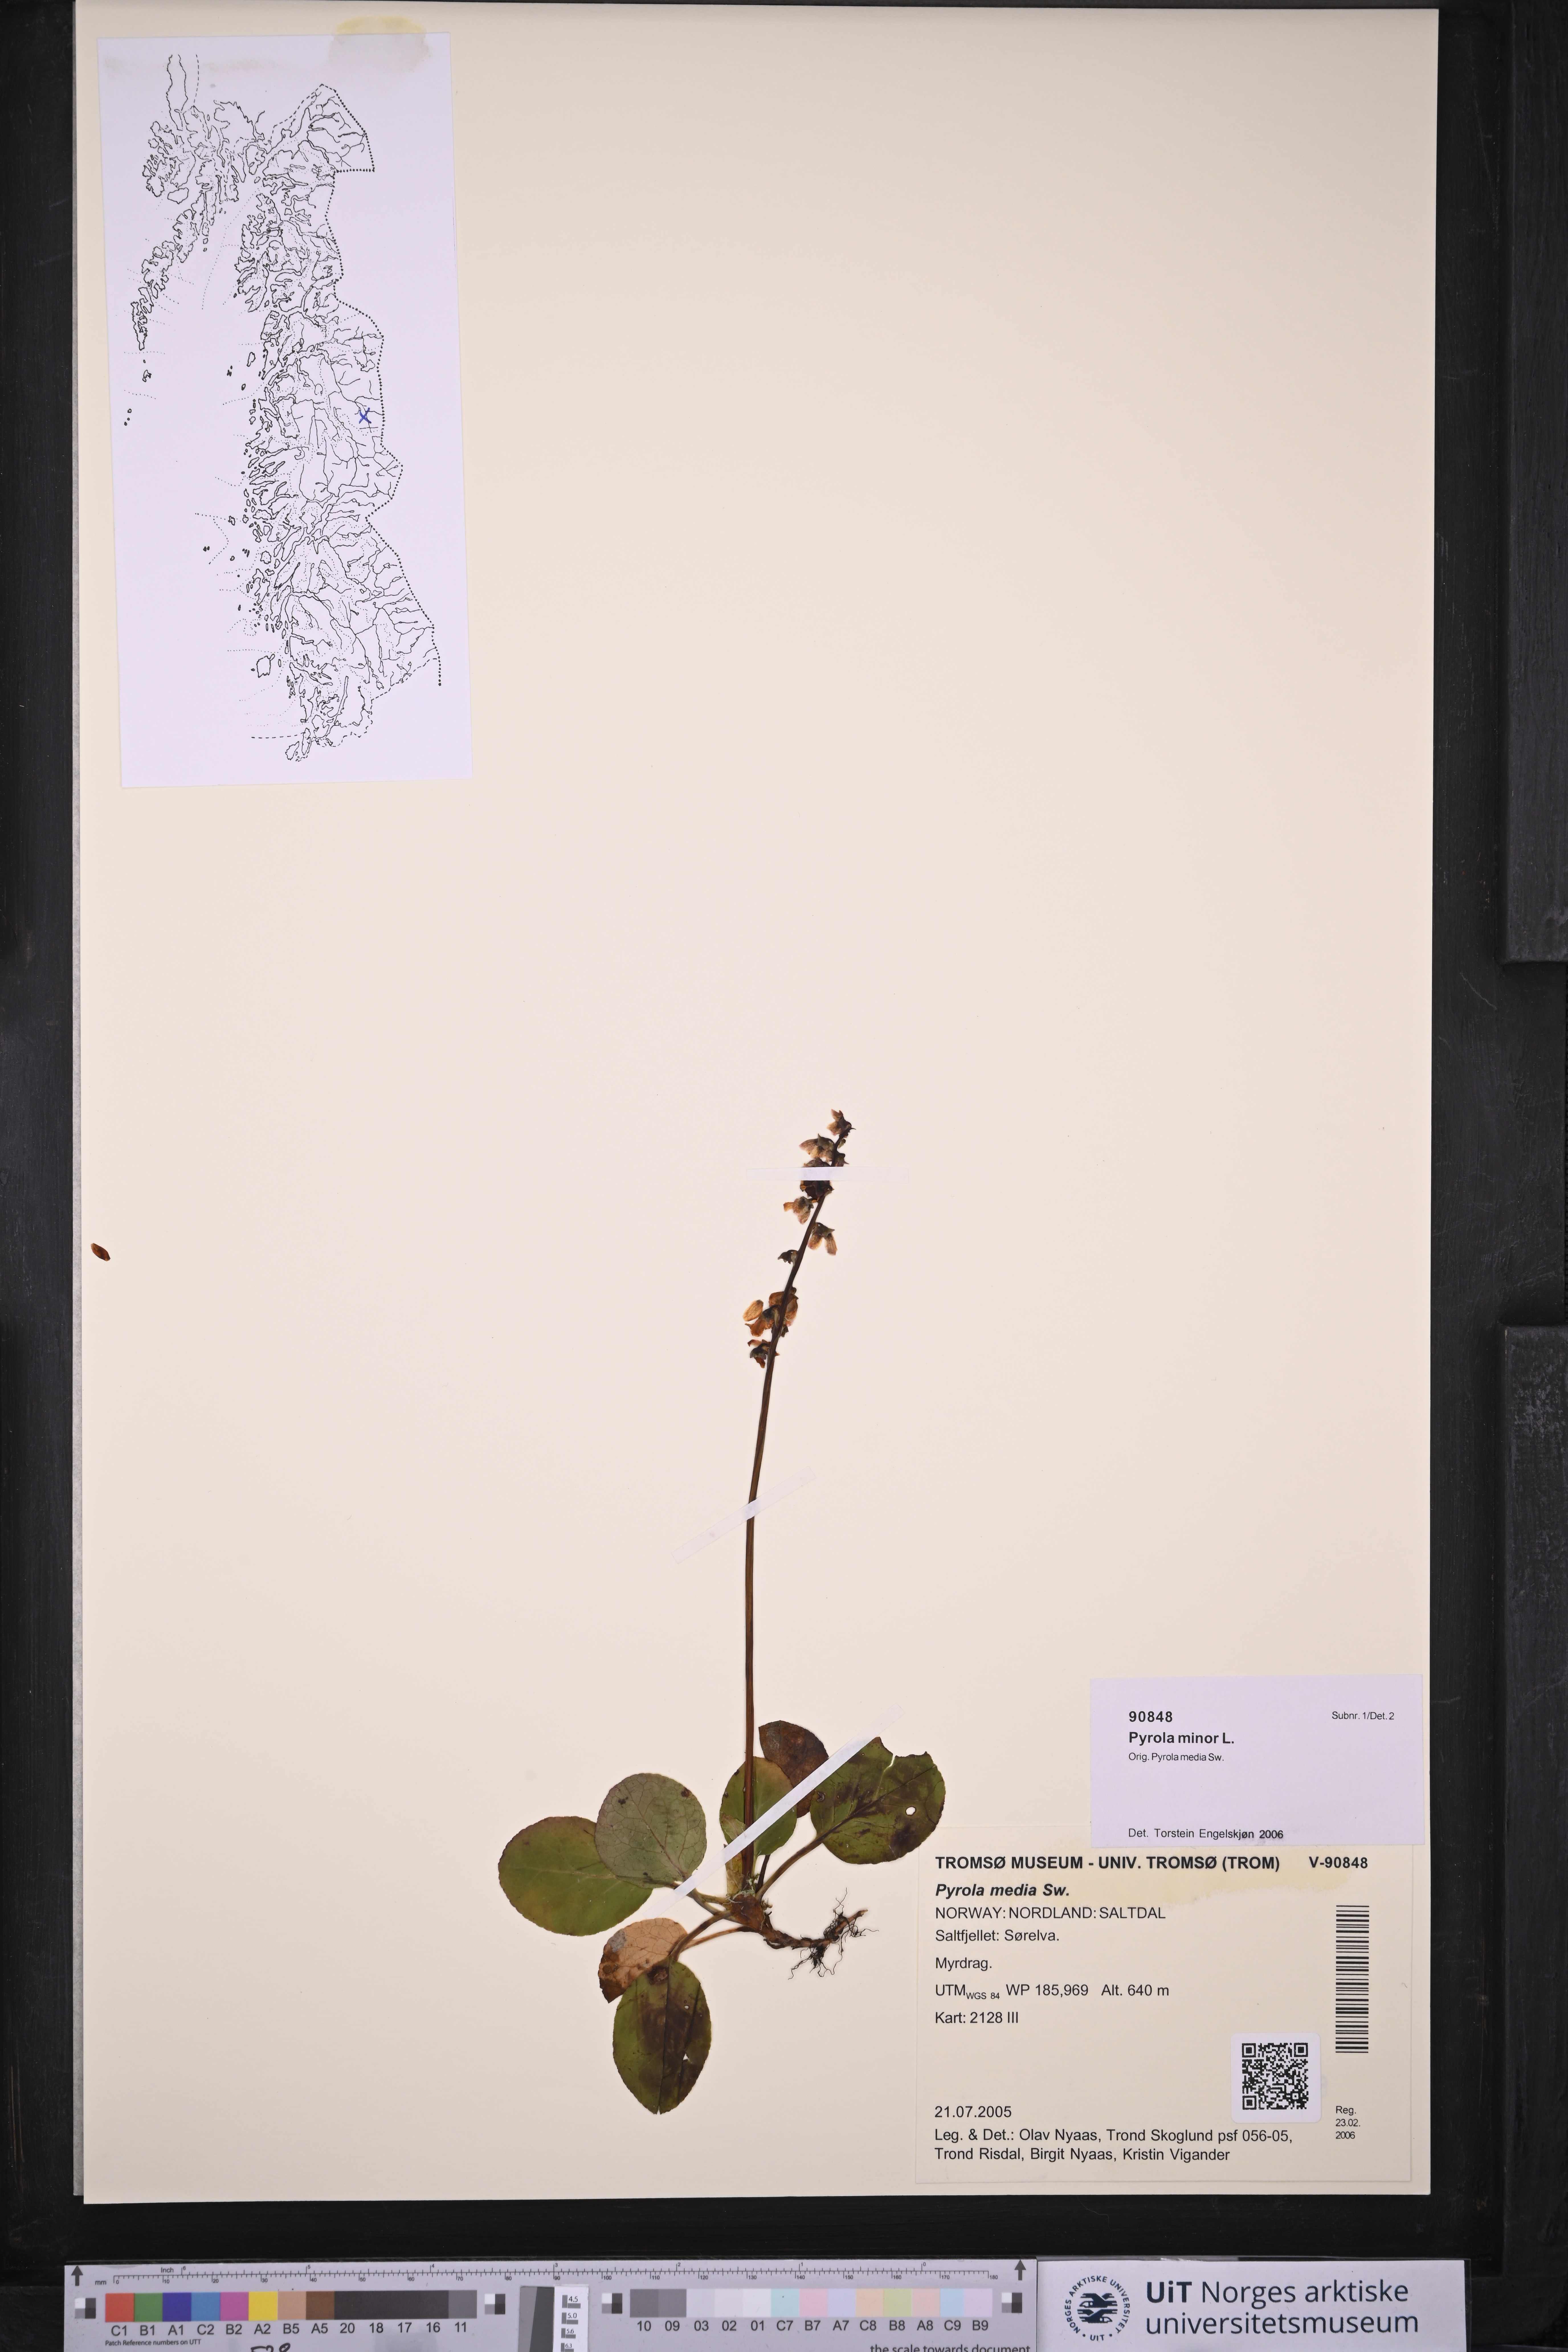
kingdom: Plantae
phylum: Tracheophyta
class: Magnoliopsida
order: Ericales
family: Ericaceae
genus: Pyrola
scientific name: Pyrola minor
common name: Common wintergreen
